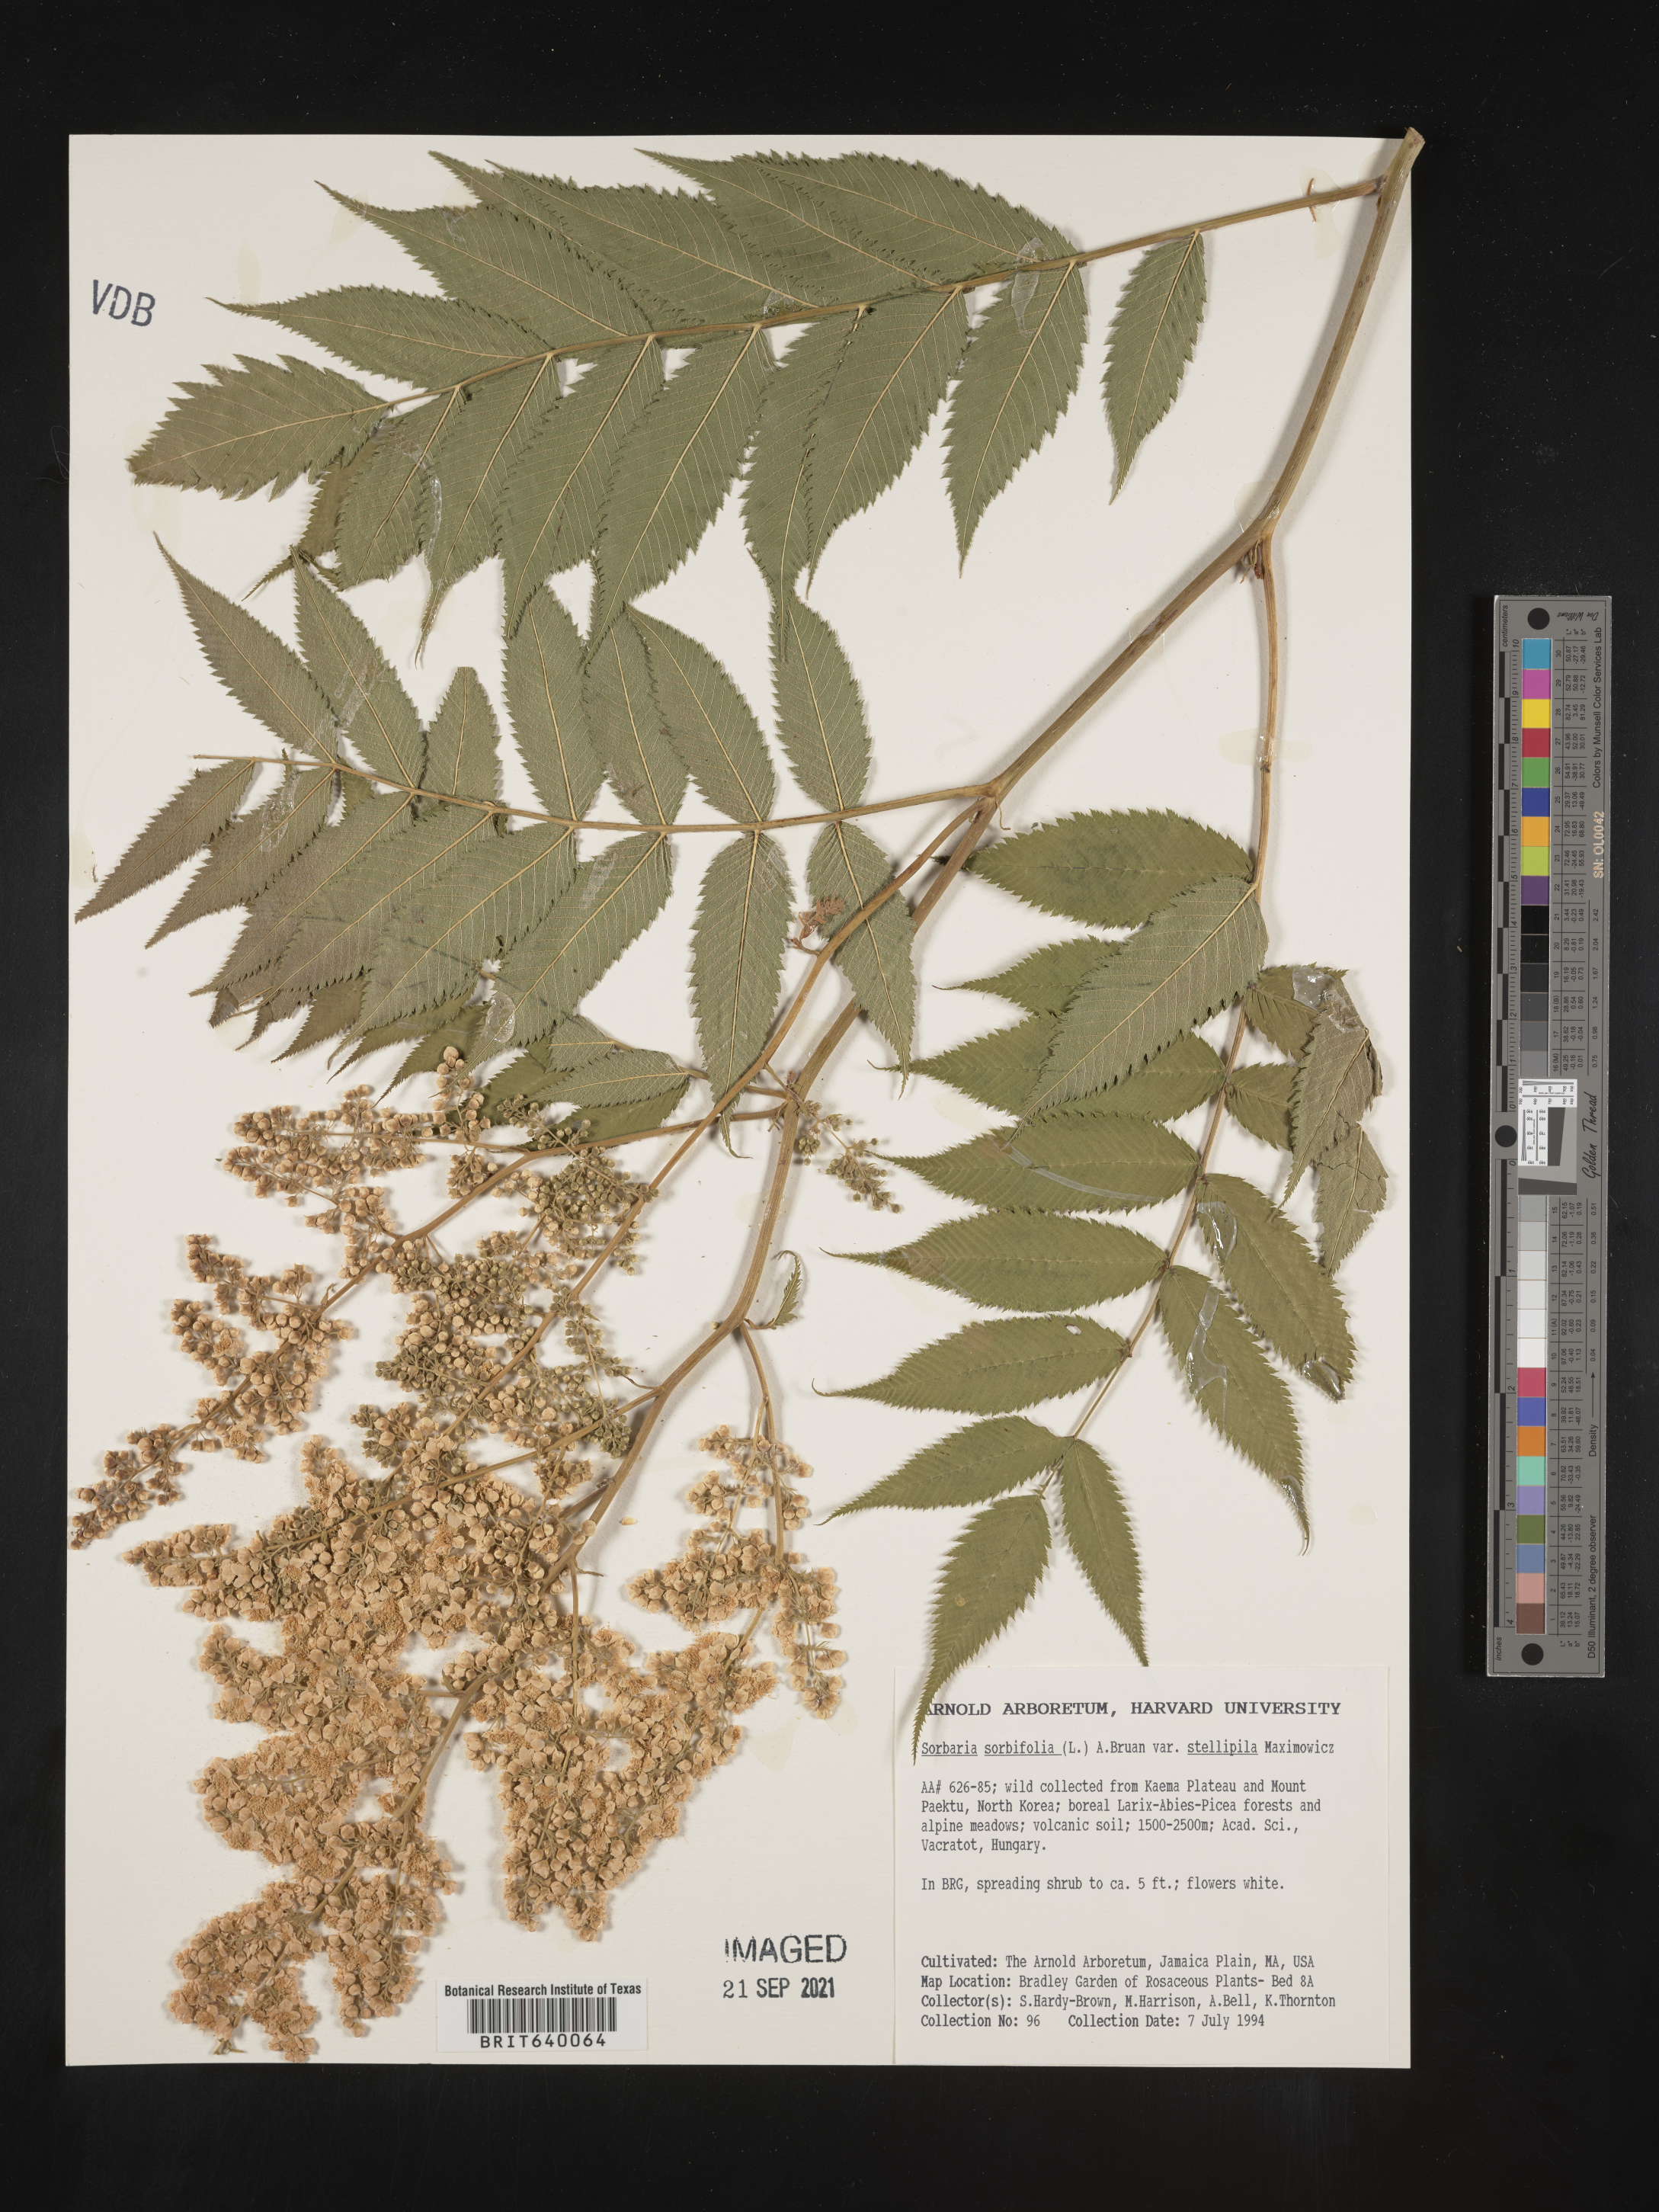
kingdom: Plantae
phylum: Tracheophyta
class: Magnoliopsida
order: Rosales
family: Rosaceae
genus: Sorbaria
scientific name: Sorbaria
